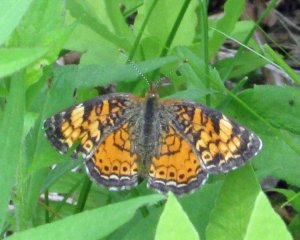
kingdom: Animalia
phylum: Arthropoda
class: Insecta
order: Lepidoptera
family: Nymphalidae
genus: Phyciodes
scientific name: Phyciodes tharos
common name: Pearl Crescent
